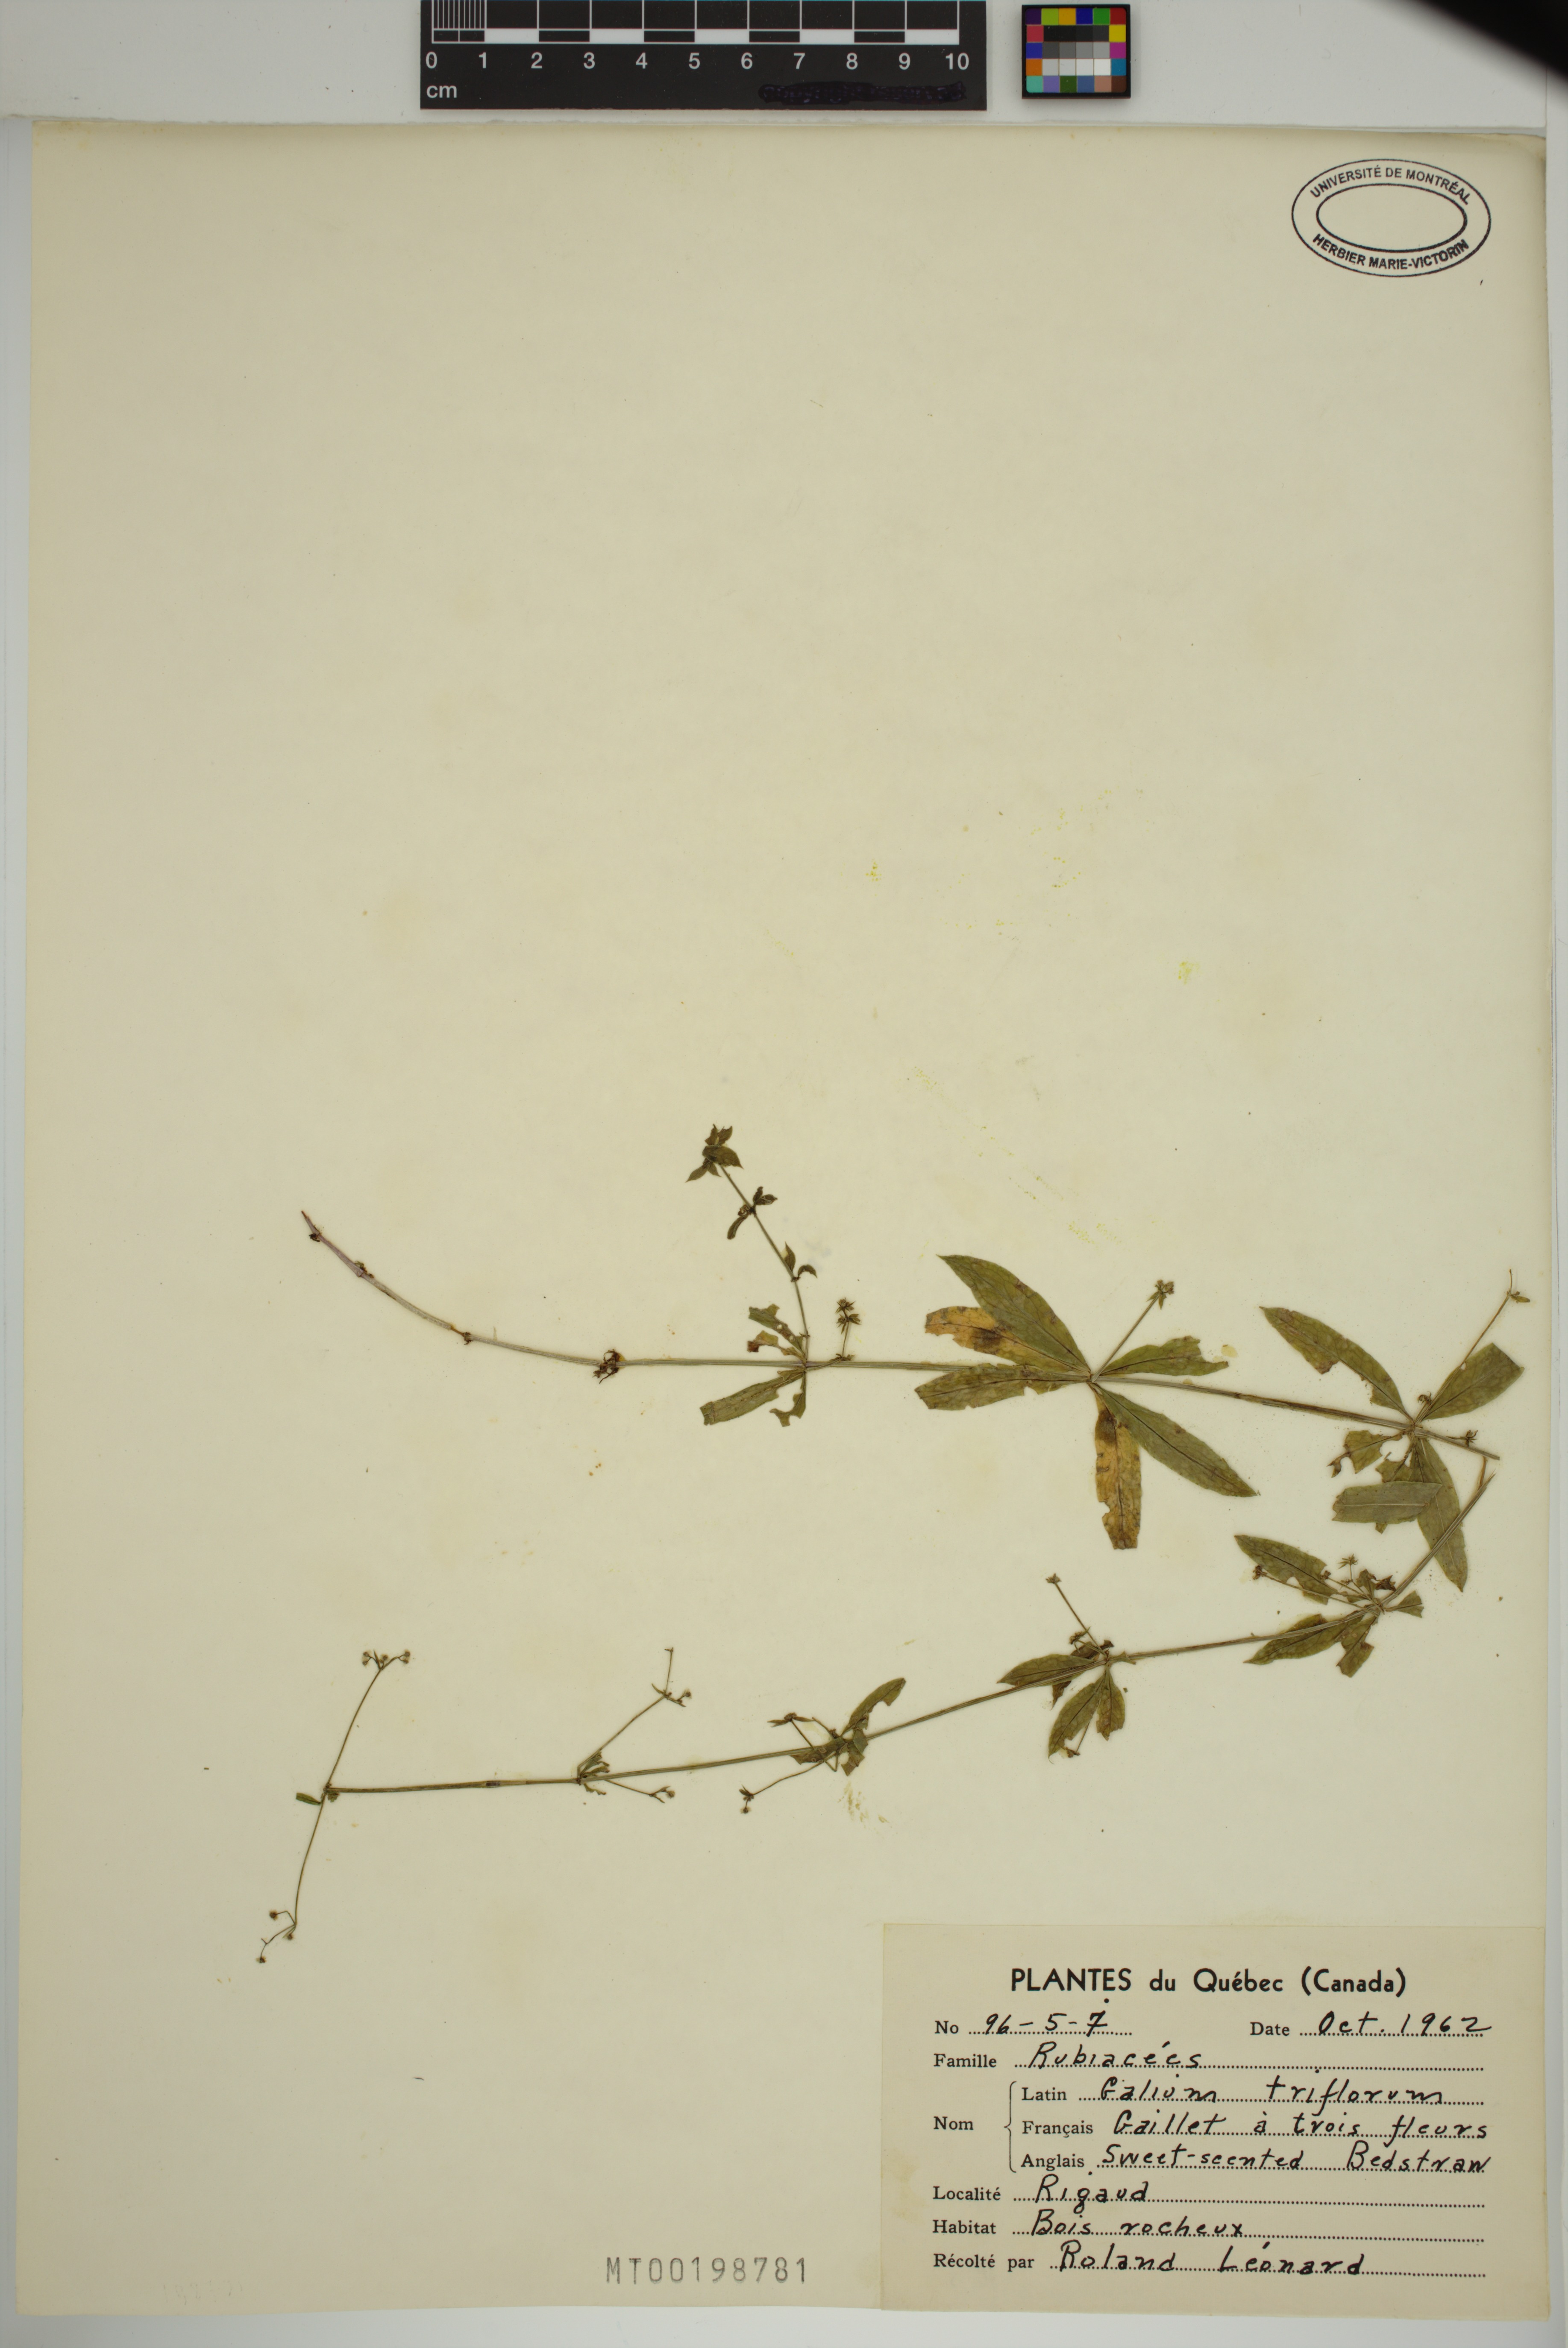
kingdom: Plantae
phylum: Tracheophyta
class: Magnoliopsida
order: Gentianales
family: Rubiaceae
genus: Galium
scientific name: Galium triflorum
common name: Fragrant bedstraw
